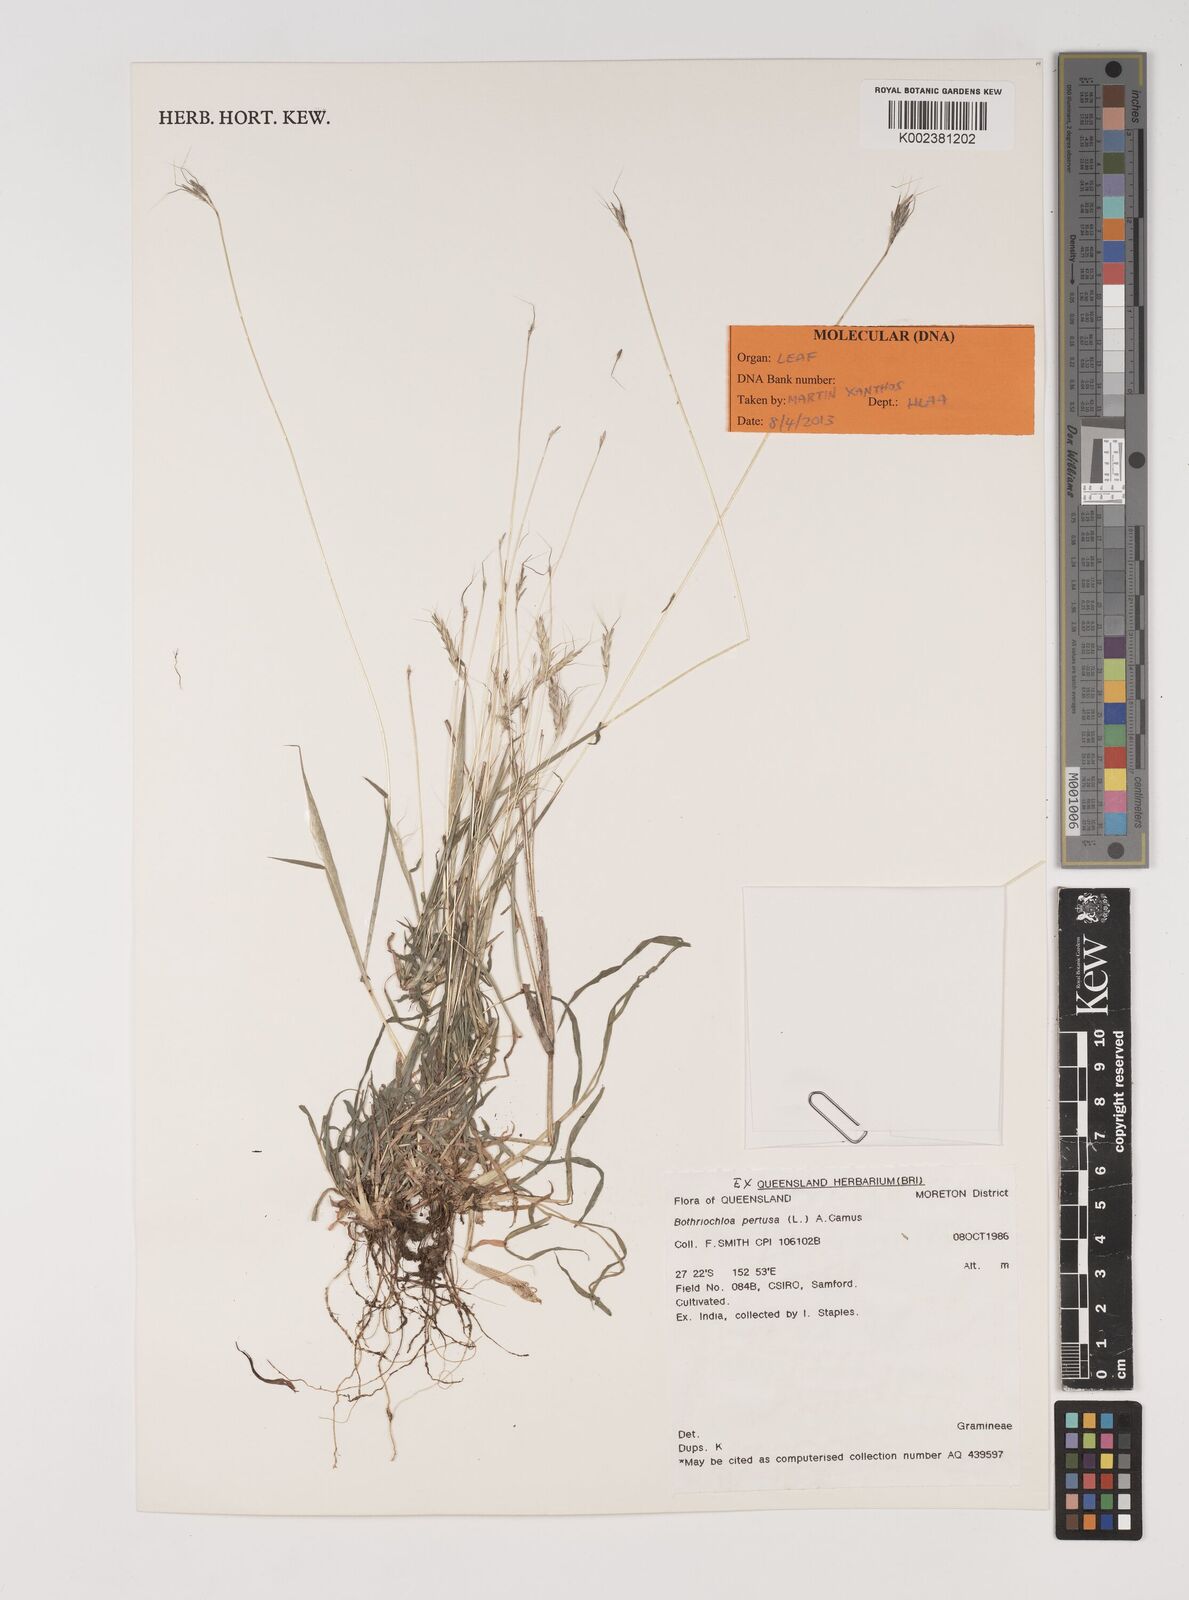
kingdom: Plantae
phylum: Tracheophyta
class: Liliopsida
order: Poales
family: Poaceae
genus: Bothriochloa
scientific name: Bothriochloa pertusa
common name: Pitted beardgrass
